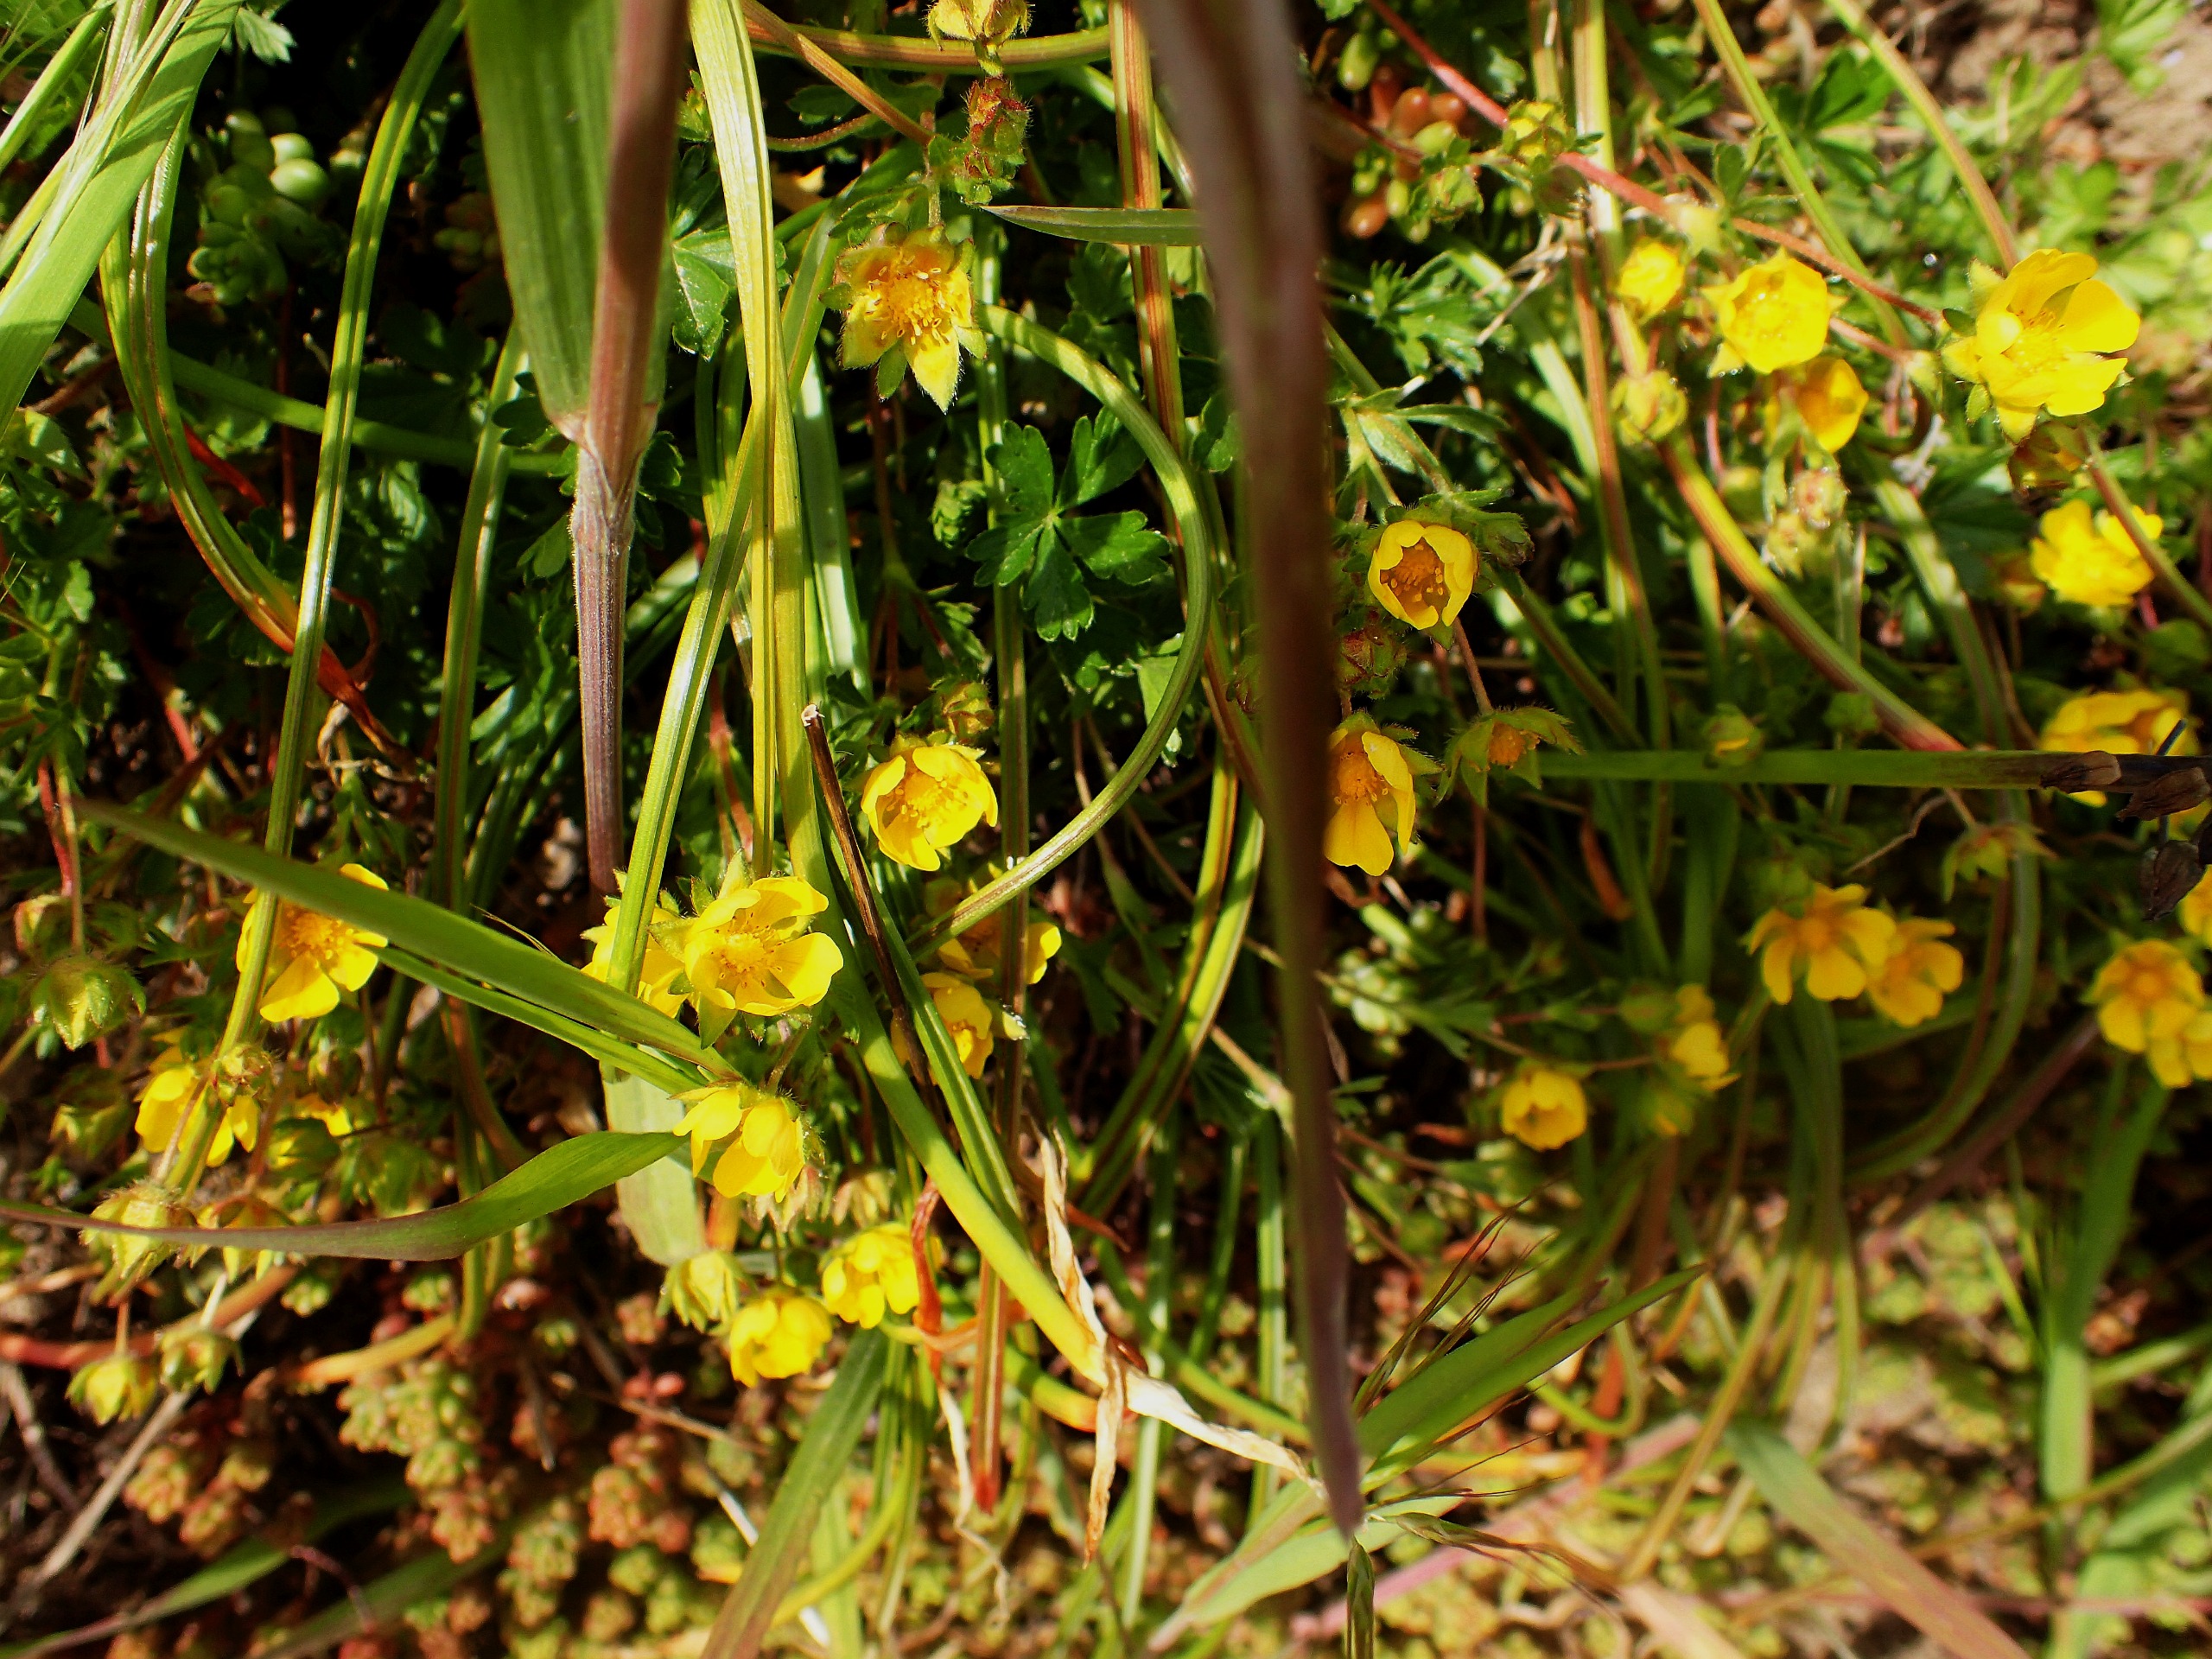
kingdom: Plantae
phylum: Tracheophyta
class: Magnoliopsida
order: Rosales
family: Rosaceae
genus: Potentilla
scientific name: Potentilla verna
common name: Vår-potentil
